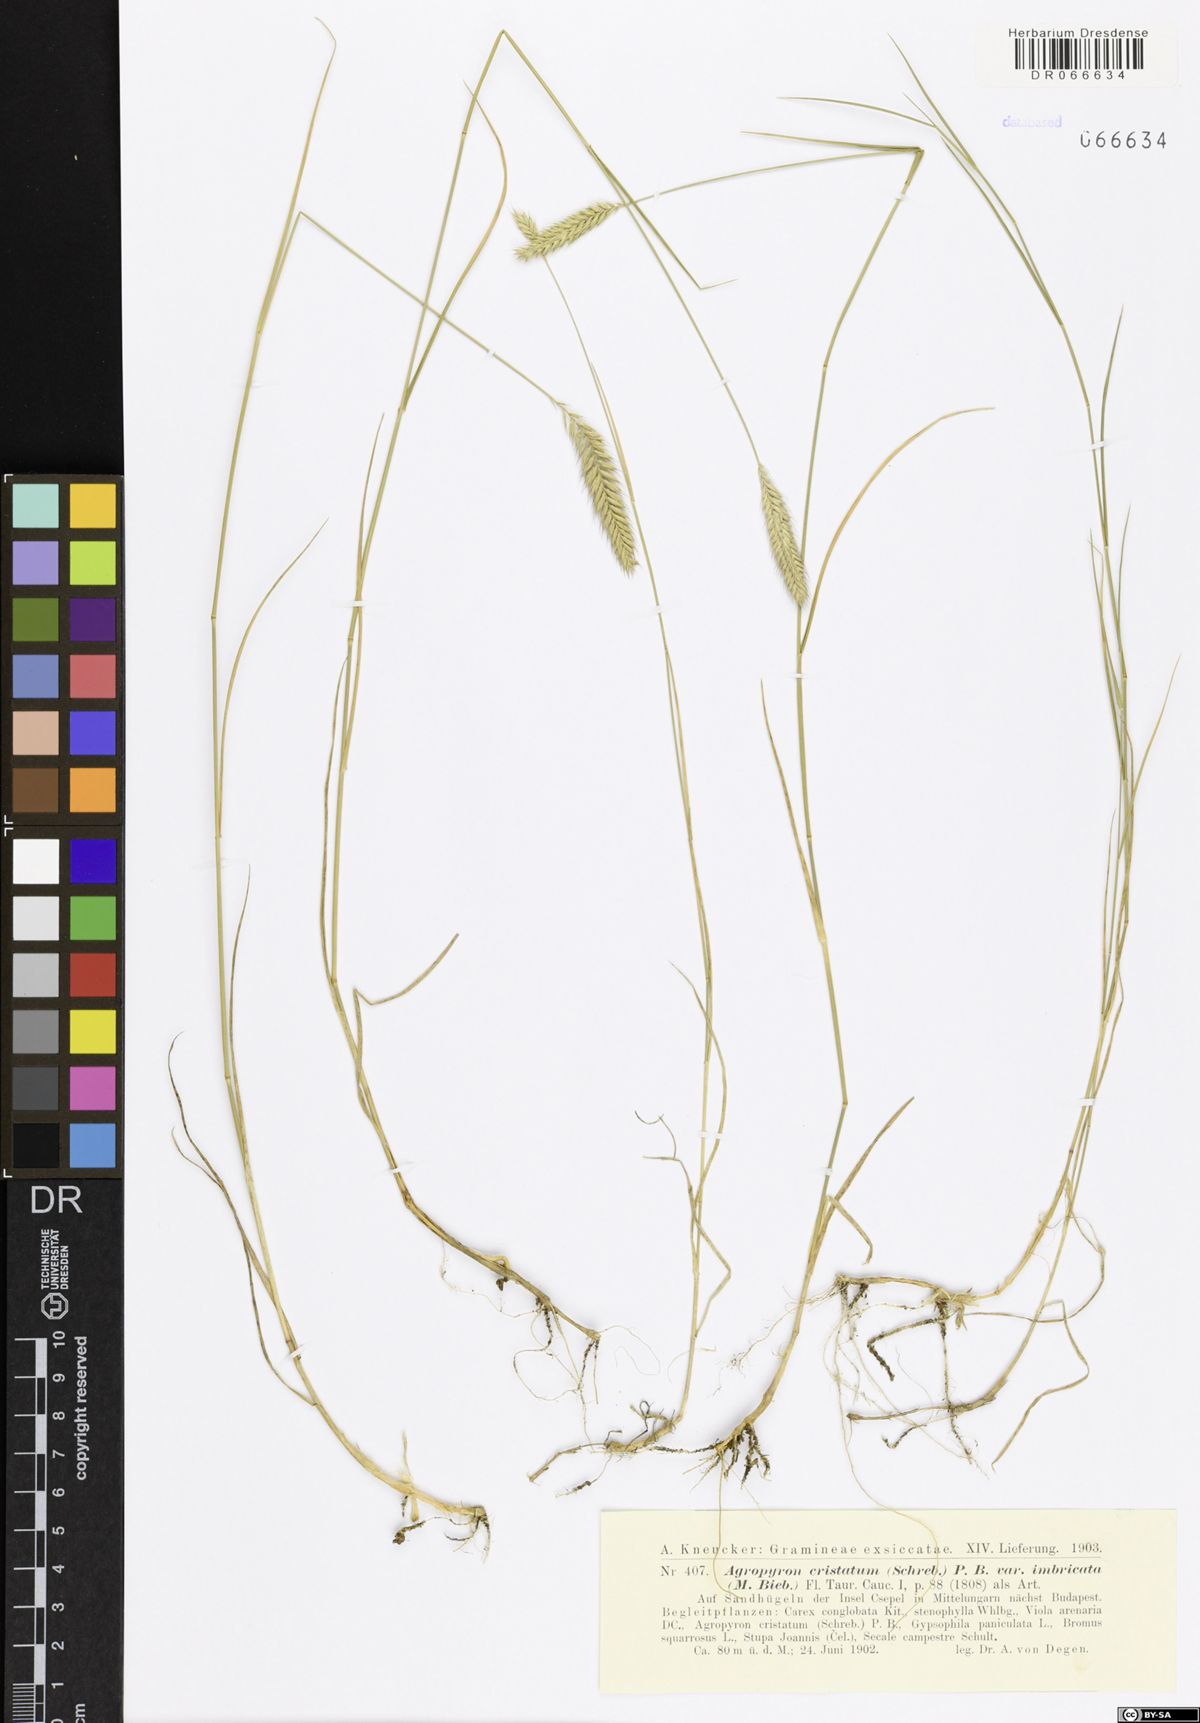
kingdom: Plantae
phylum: Tracheophyta
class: Liliopsida
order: Poales
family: Poaceae
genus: Agropyron
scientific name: Agropyron cristatum
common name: Crested wheatgrass
